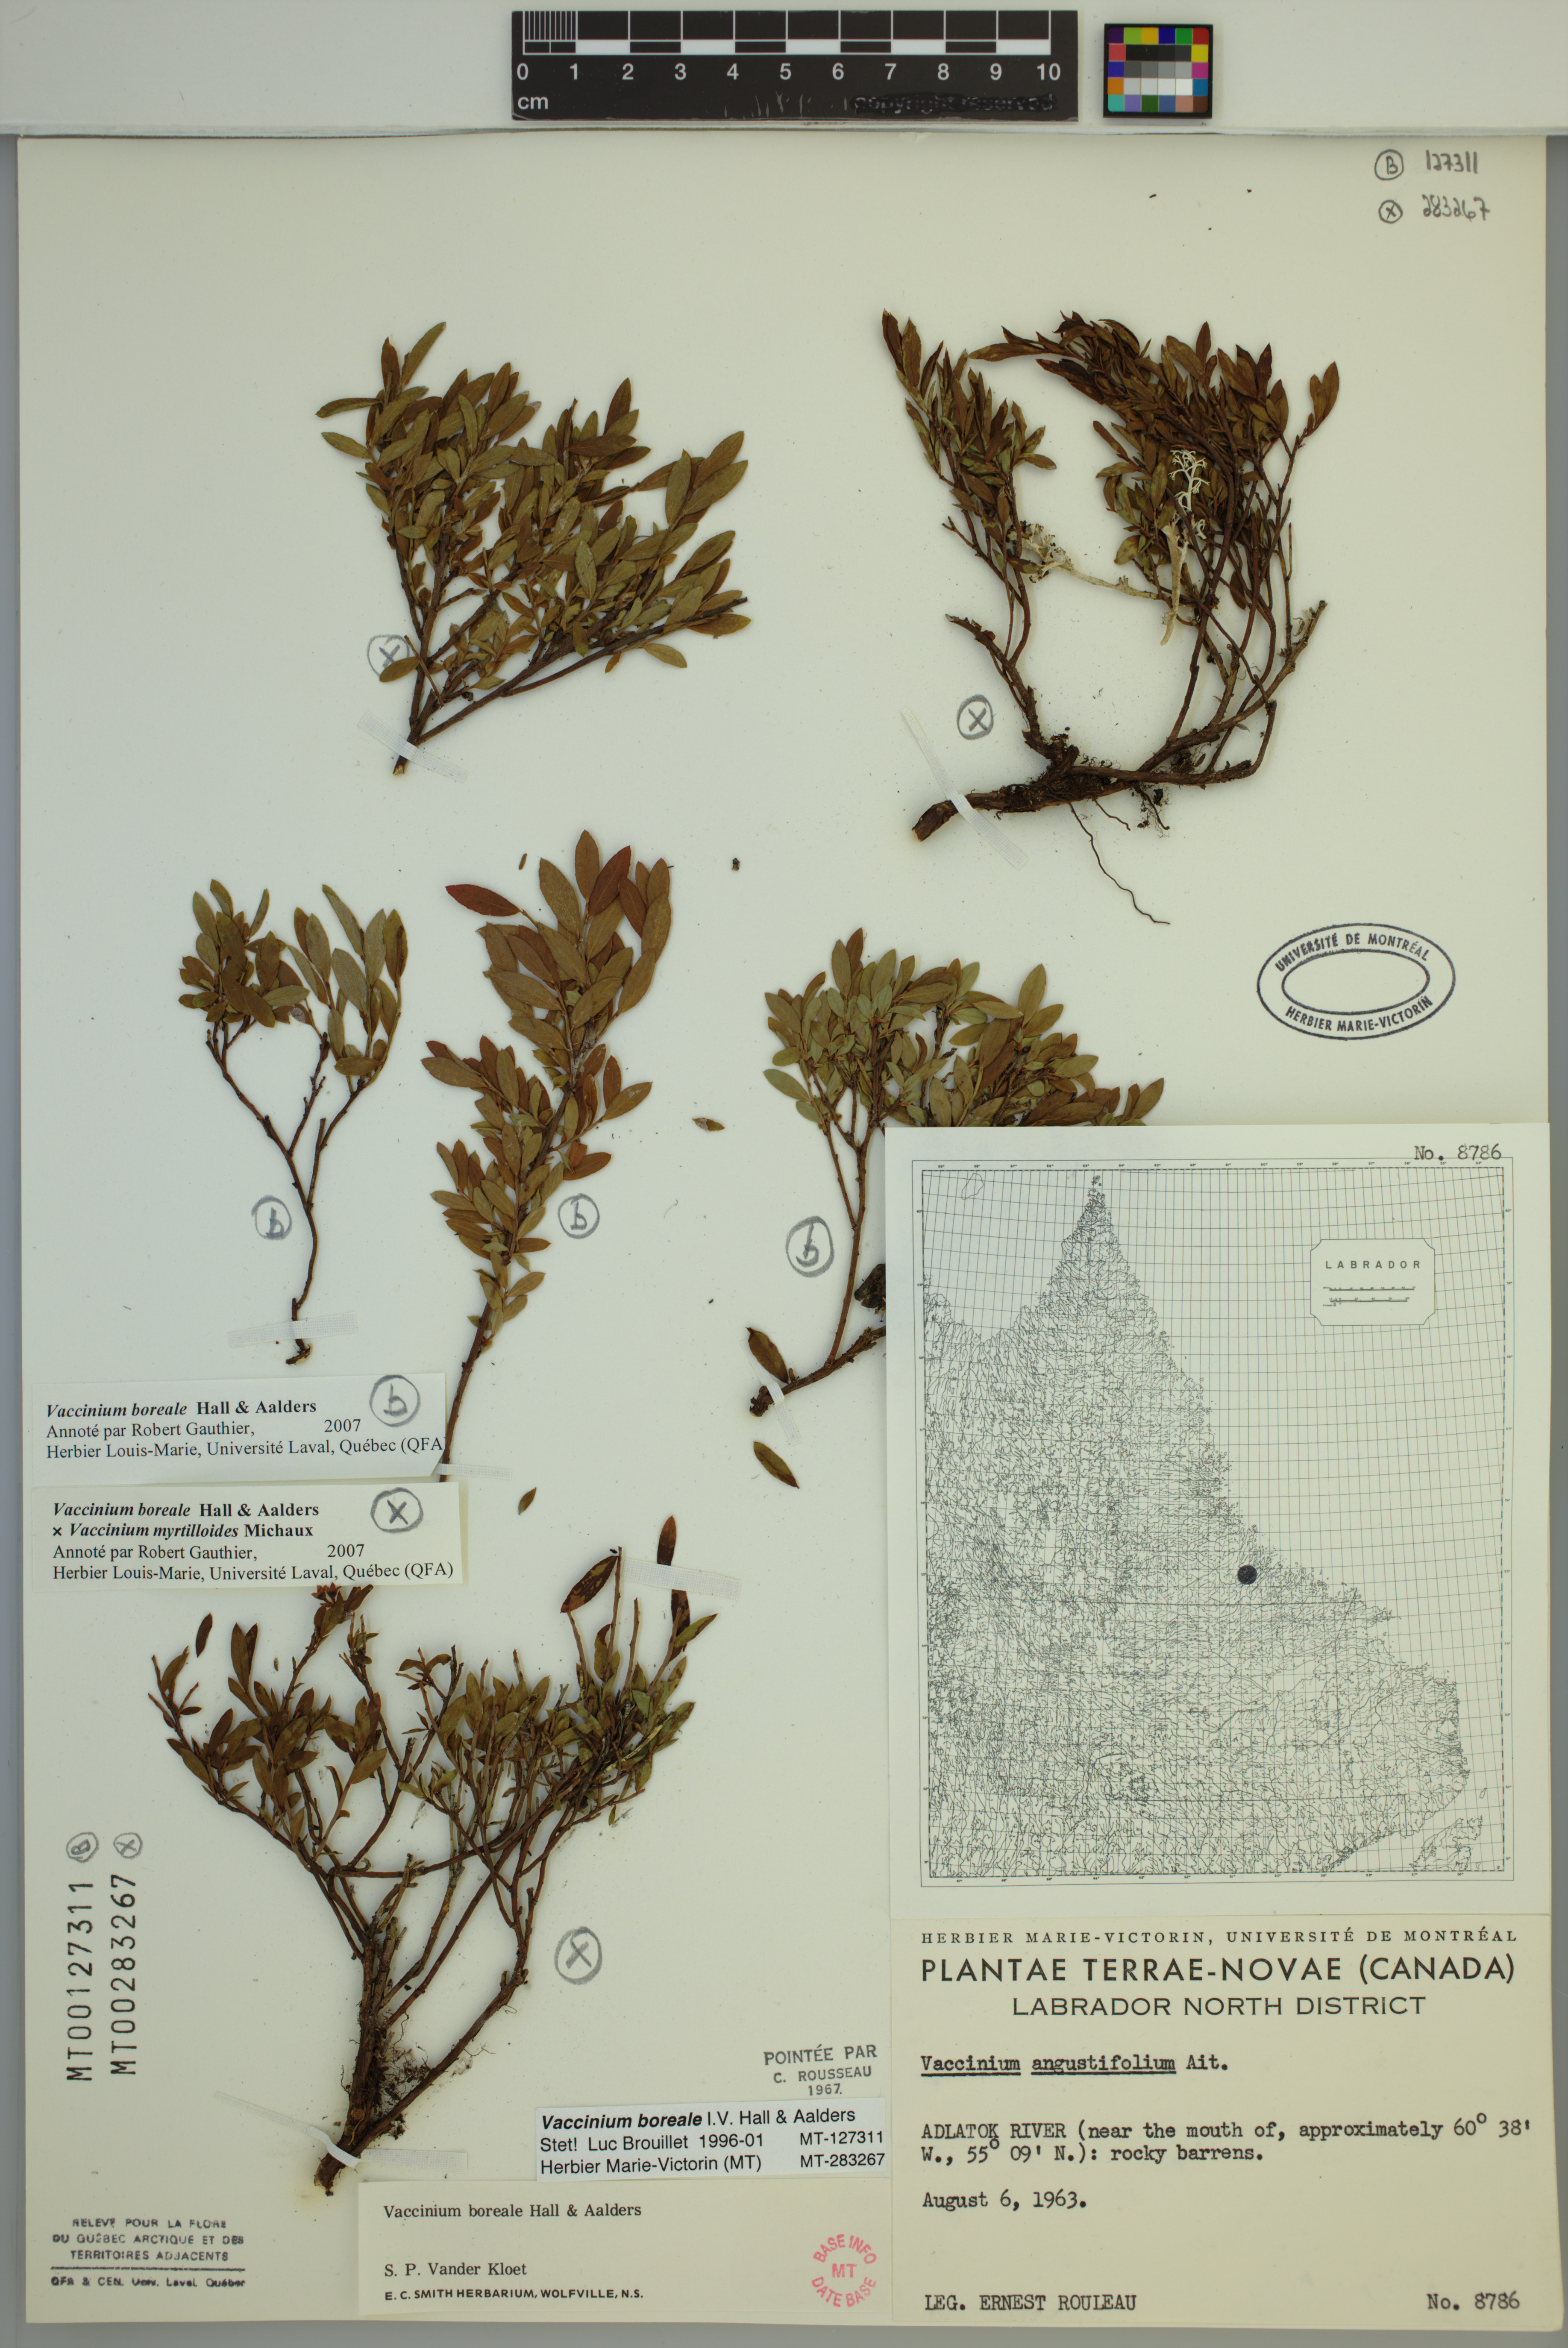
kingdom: Plantae
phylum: Tracheophyta
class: Magnoliopsida
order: Ericales
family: Ericaceae
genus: Vaccinium
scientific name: Vaccinium boreale
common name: Northern blueberry
